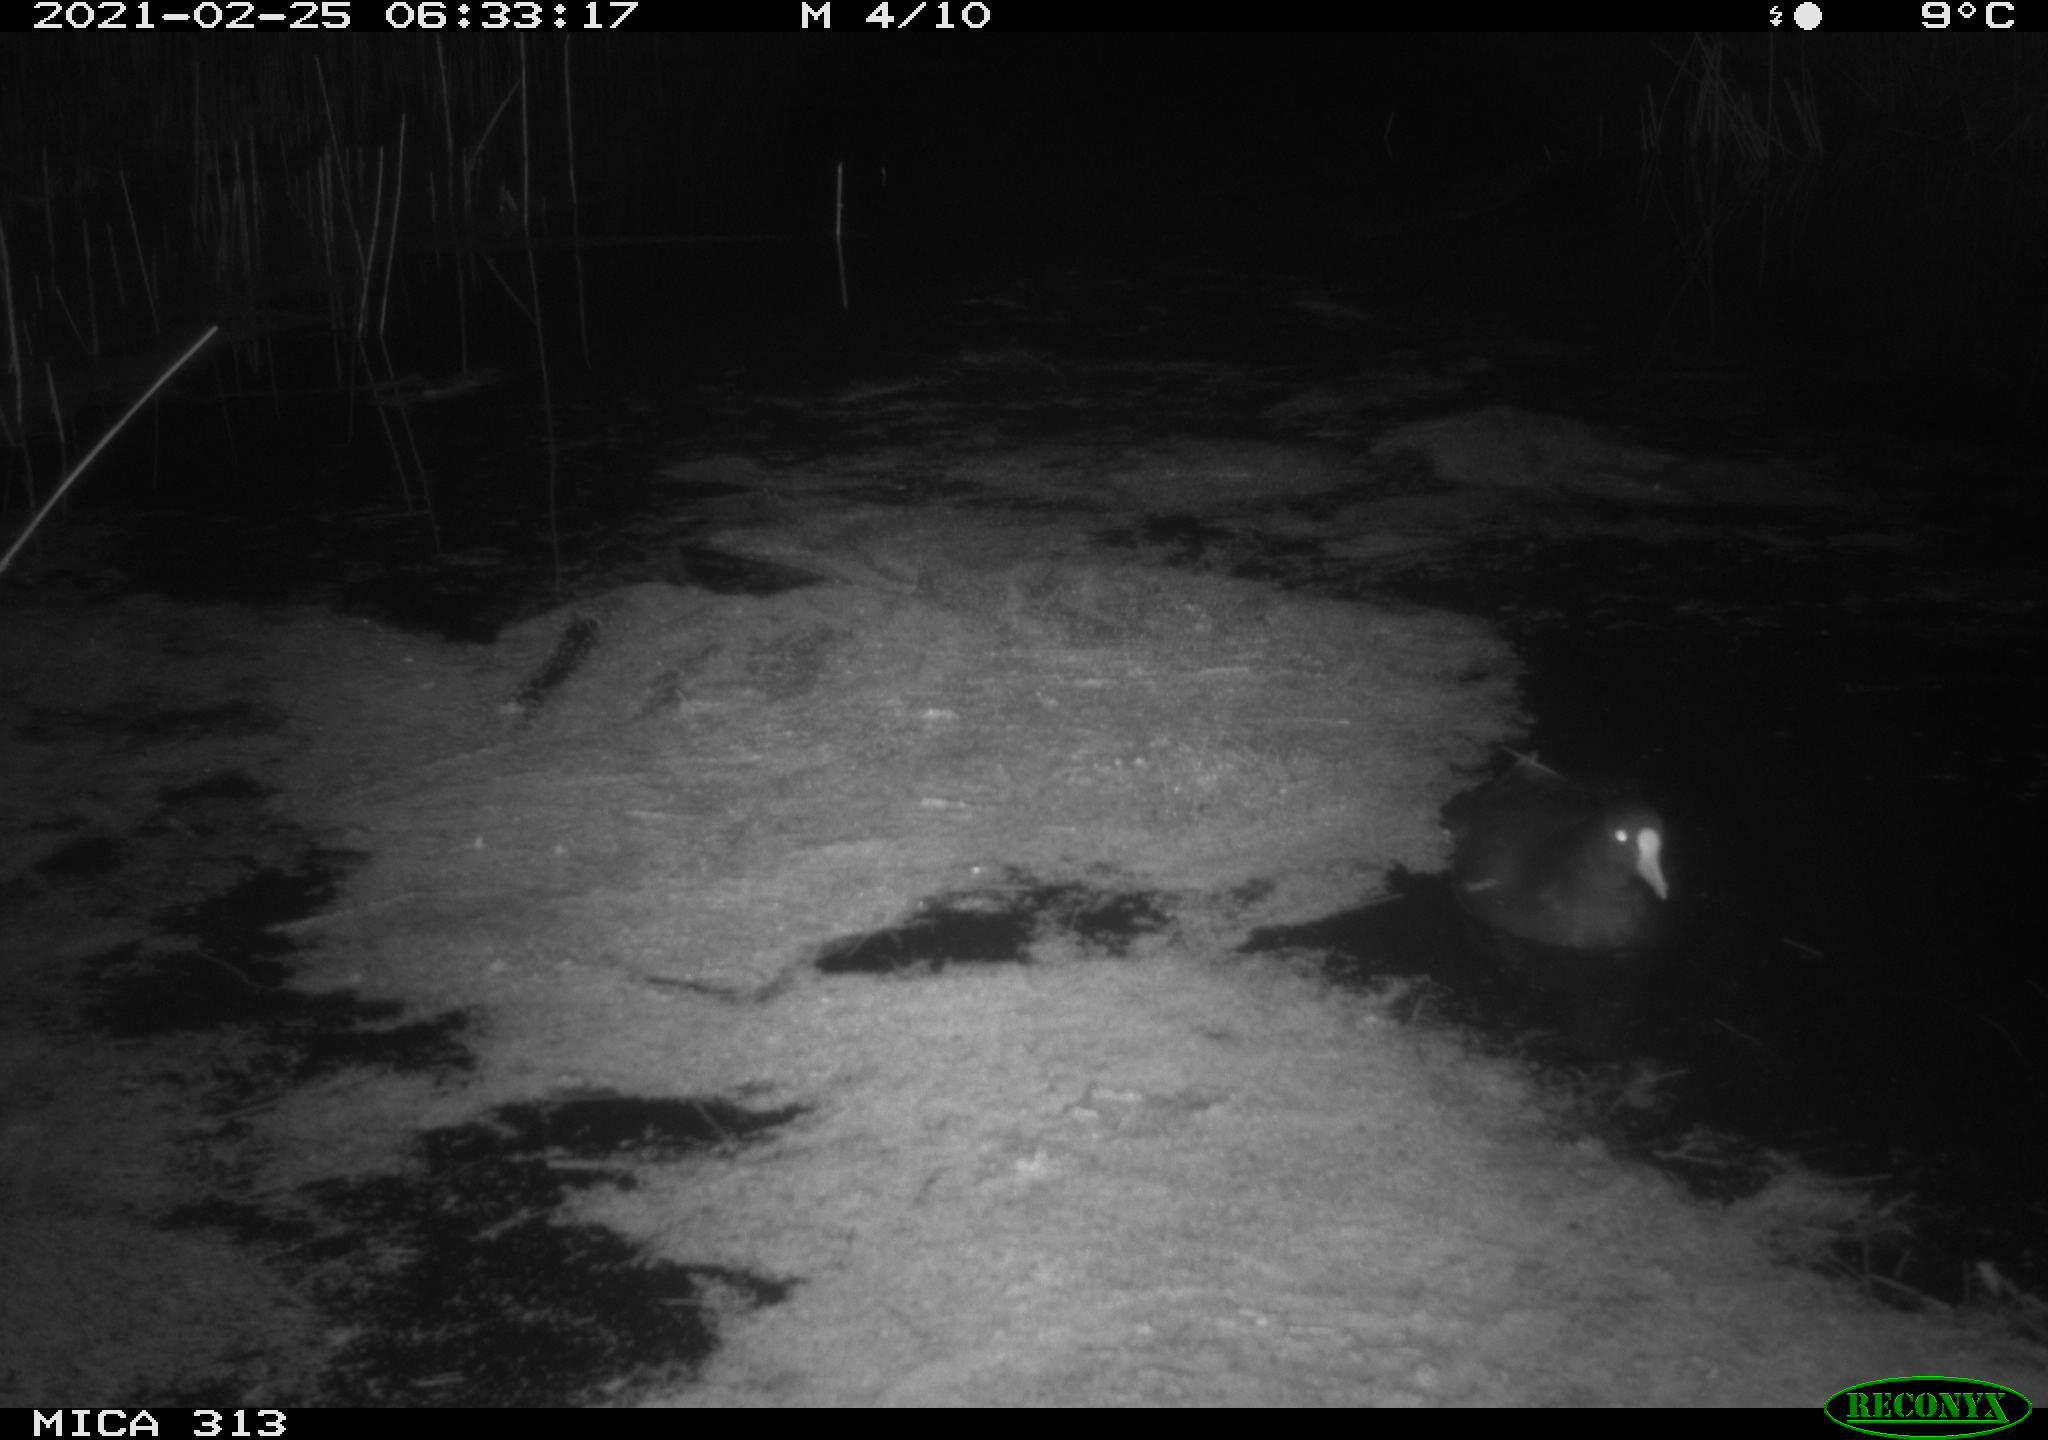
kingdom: Animalia
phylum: Chordata
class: Aves
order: Gruiformes
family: Rallidae
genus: Gallinula
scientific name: Gallinula chloropus
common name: Common moorhen
